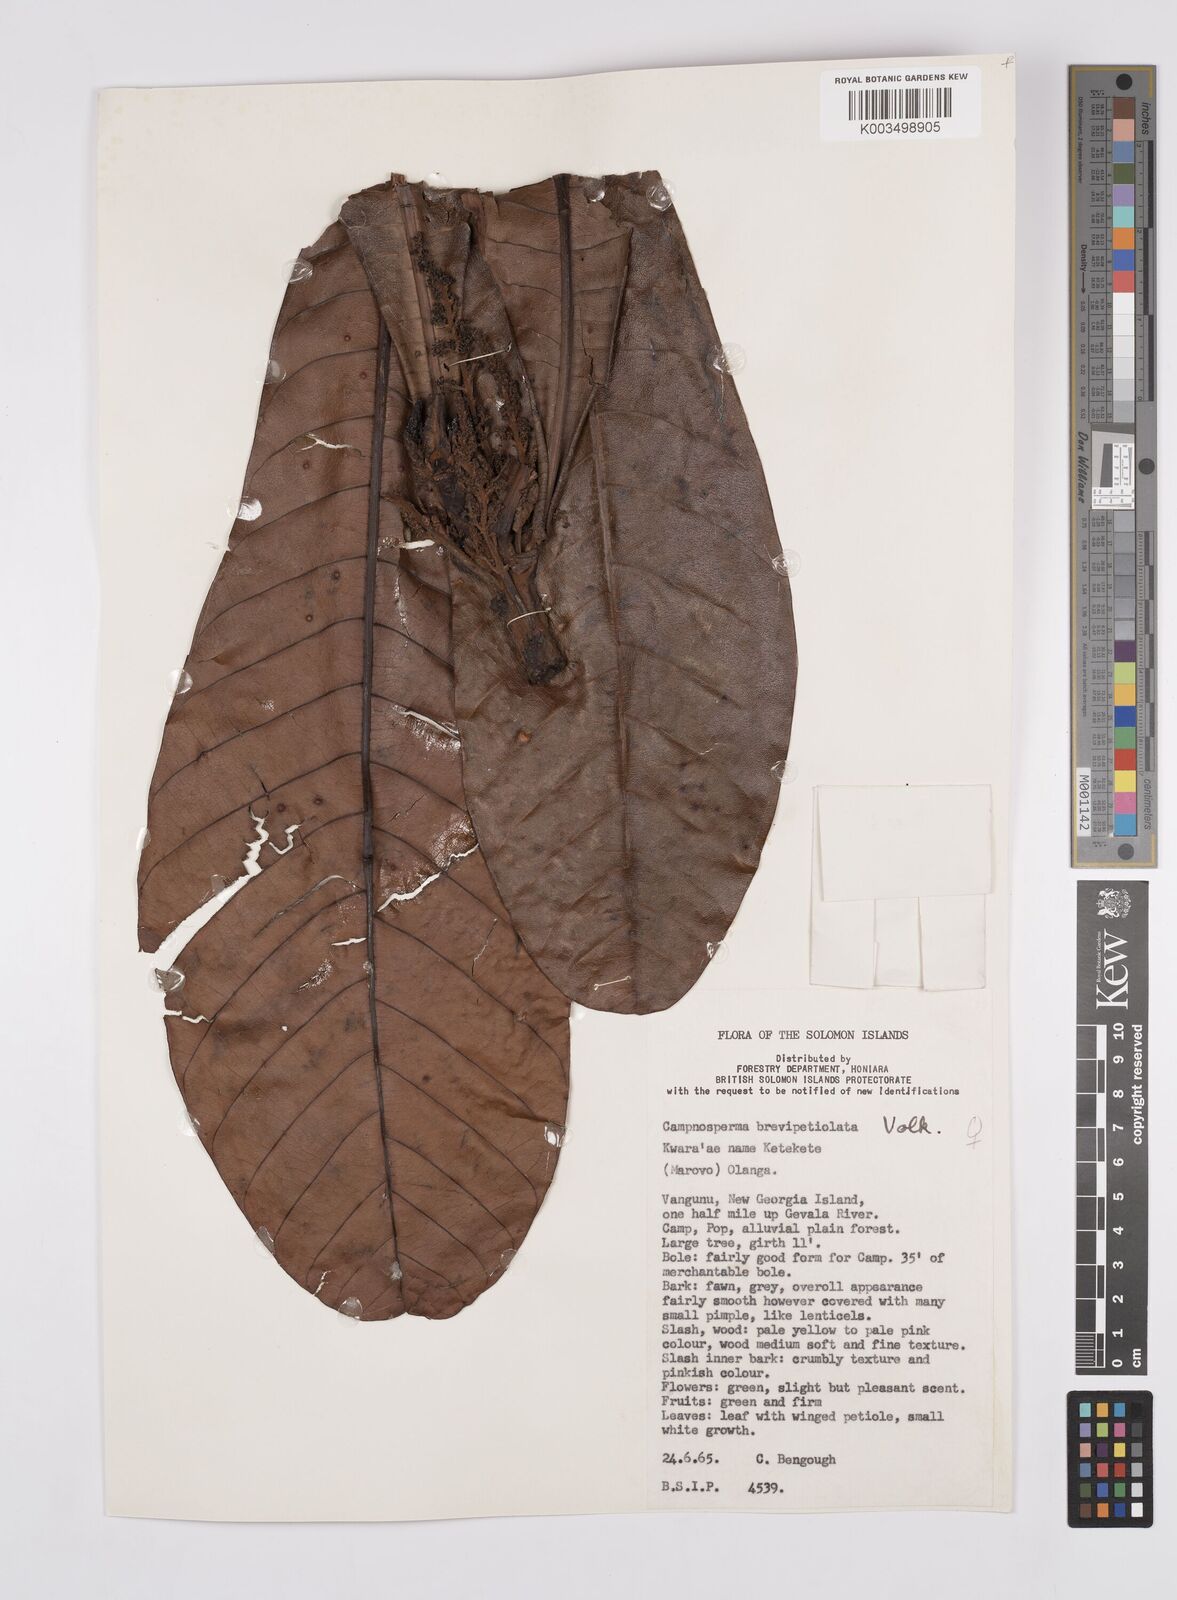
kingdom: Plantae
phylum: Tracheophyta
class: Magnoliopsida
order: Sapindales
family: Anacardiaceae
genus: Campnosperma
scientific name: Campnosperma brevipetiolatum
